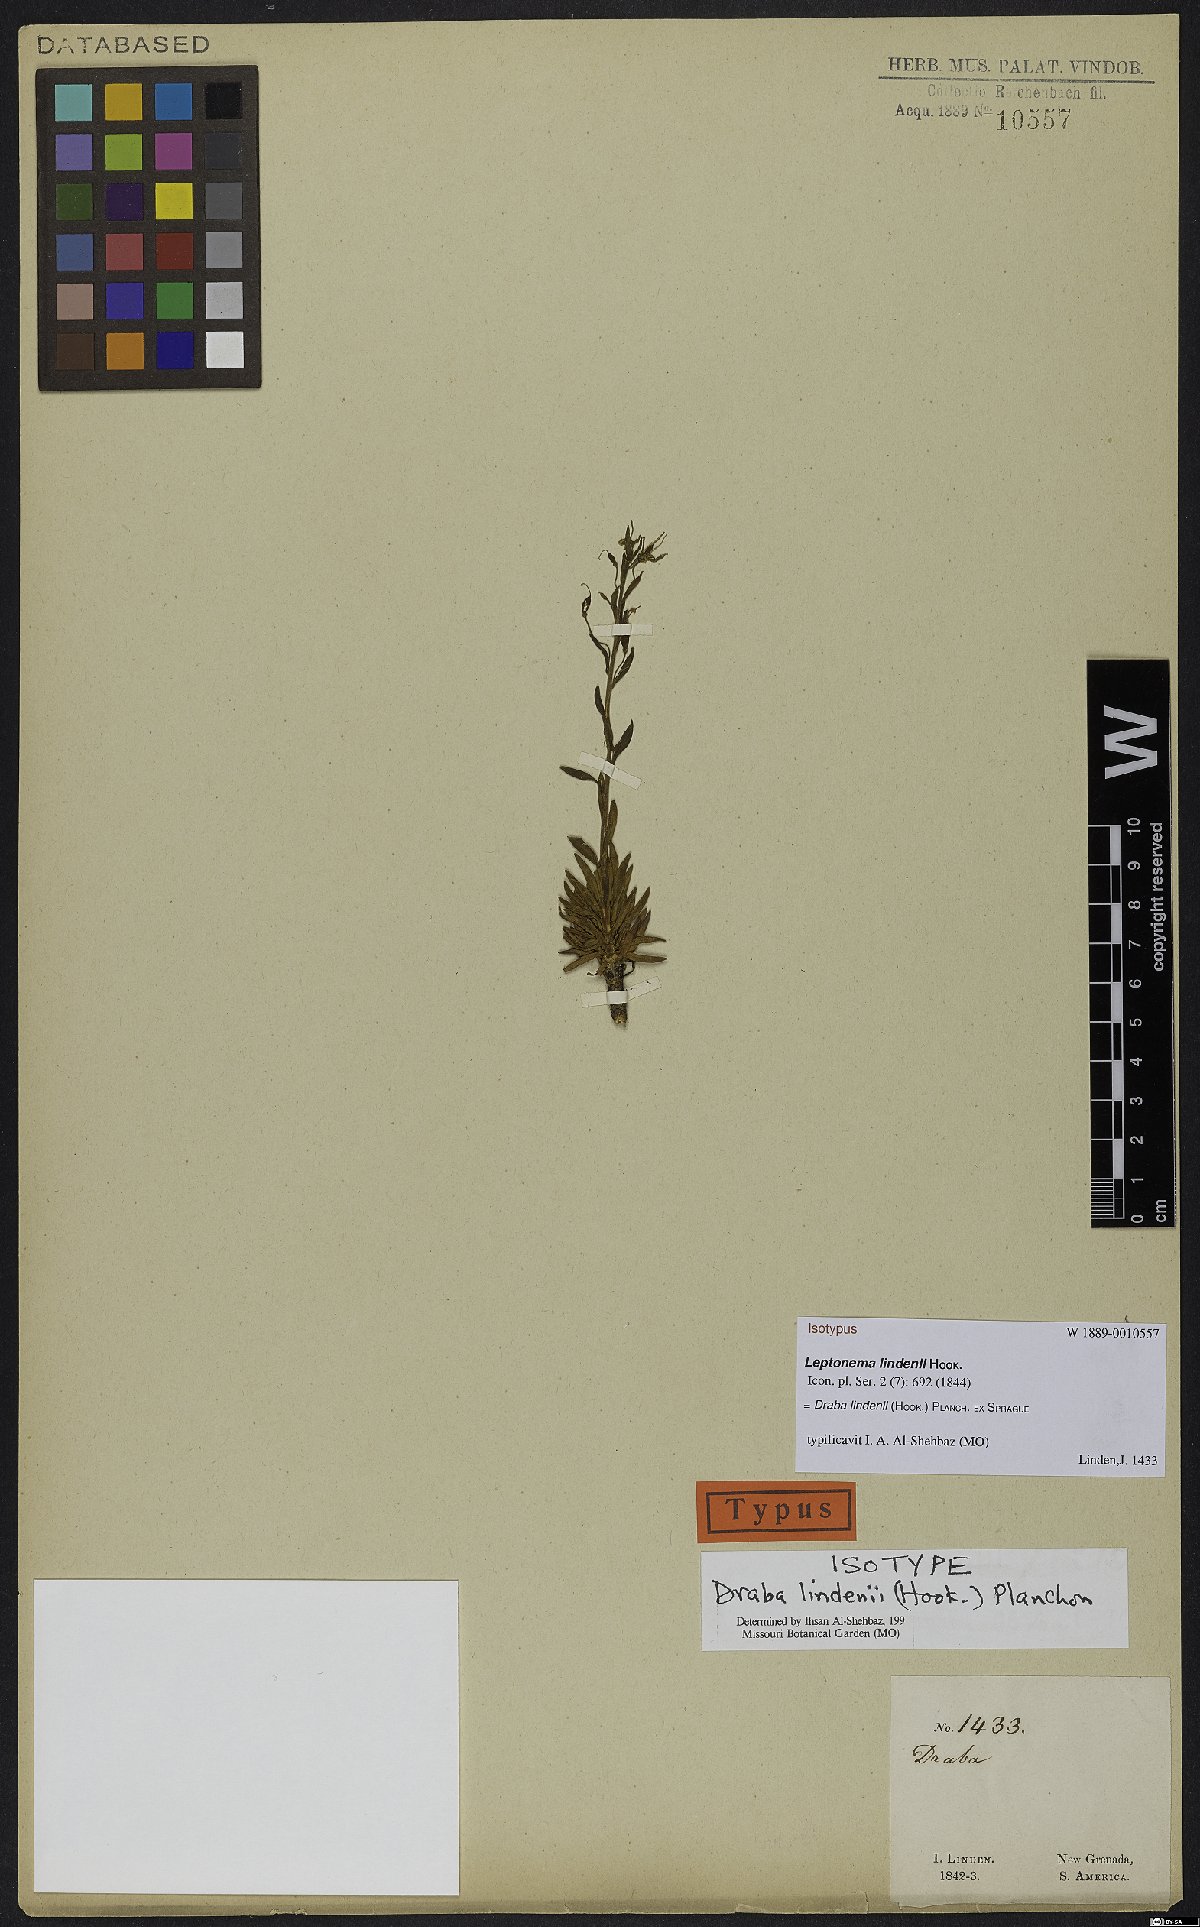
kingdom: Plantae
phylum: Tracheophyta
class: Magnoliopsida
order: Brassicales
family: Brassicaceae
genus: Draba
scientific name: Draba lindenii
